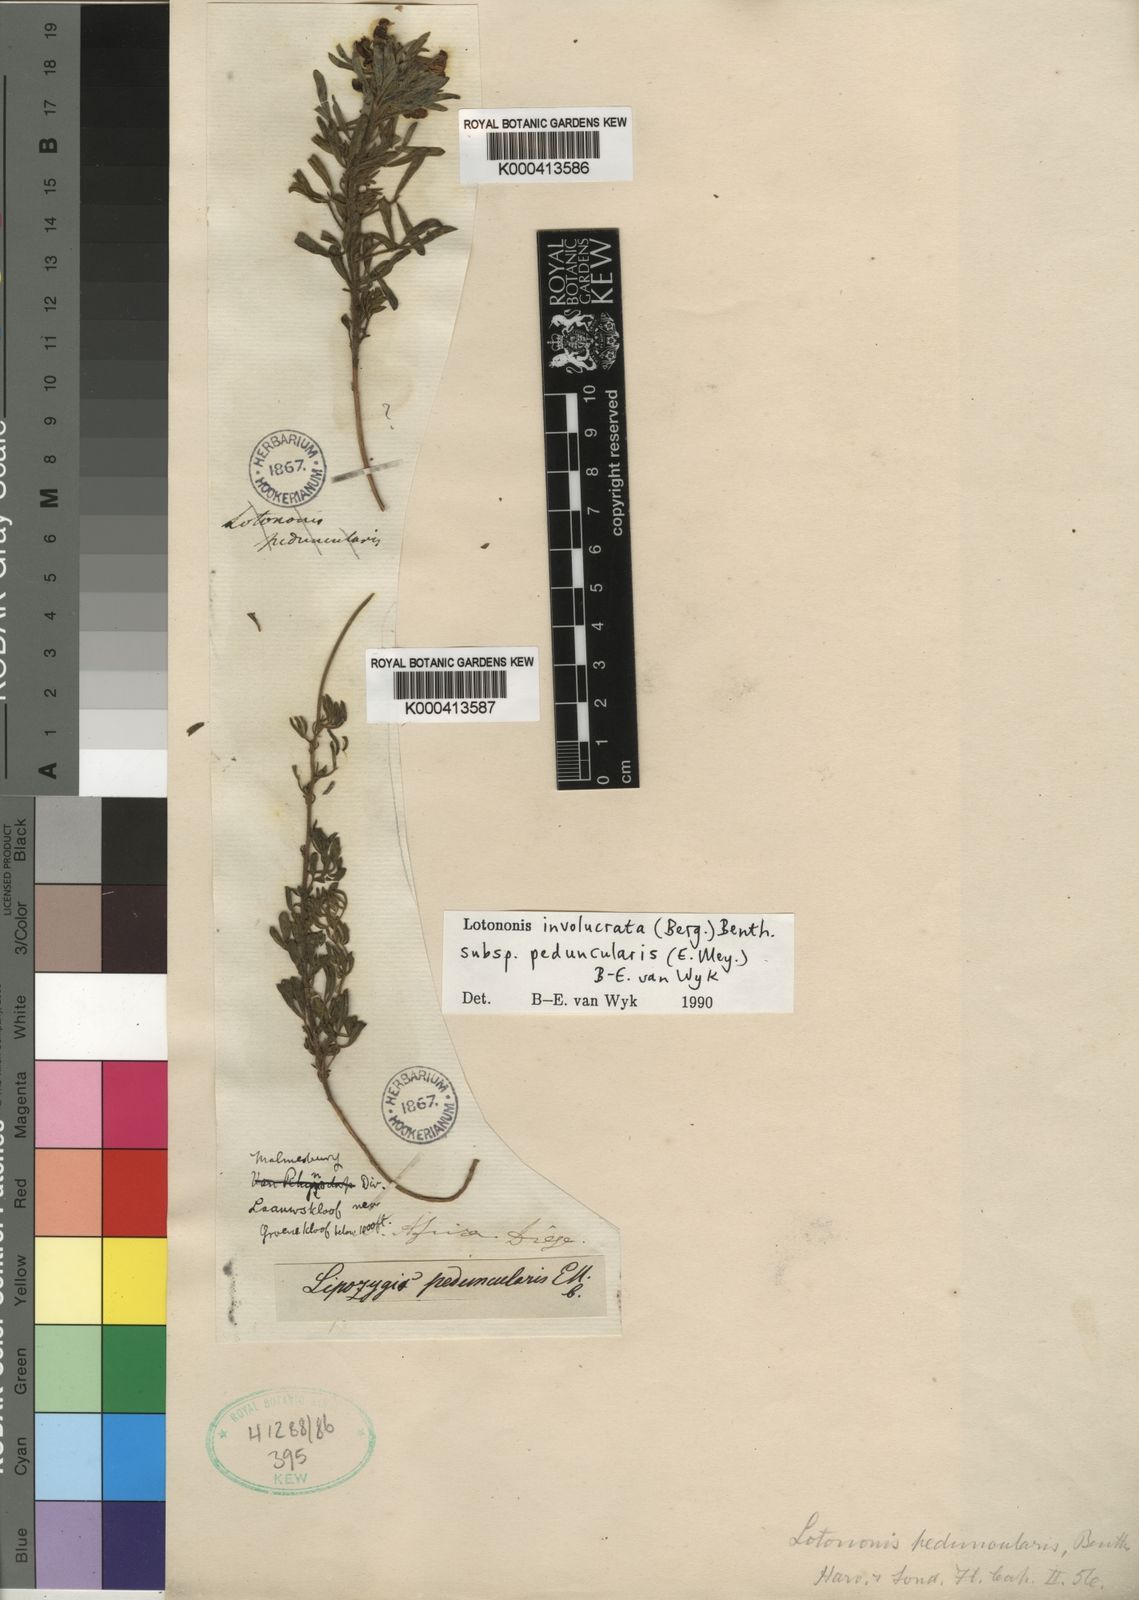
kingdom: Plantae
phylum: Tracheophyta
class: Magnoliopsida
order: Fabales
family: Fabaceae
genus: Lotononis
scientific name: Lotononis involucrata
